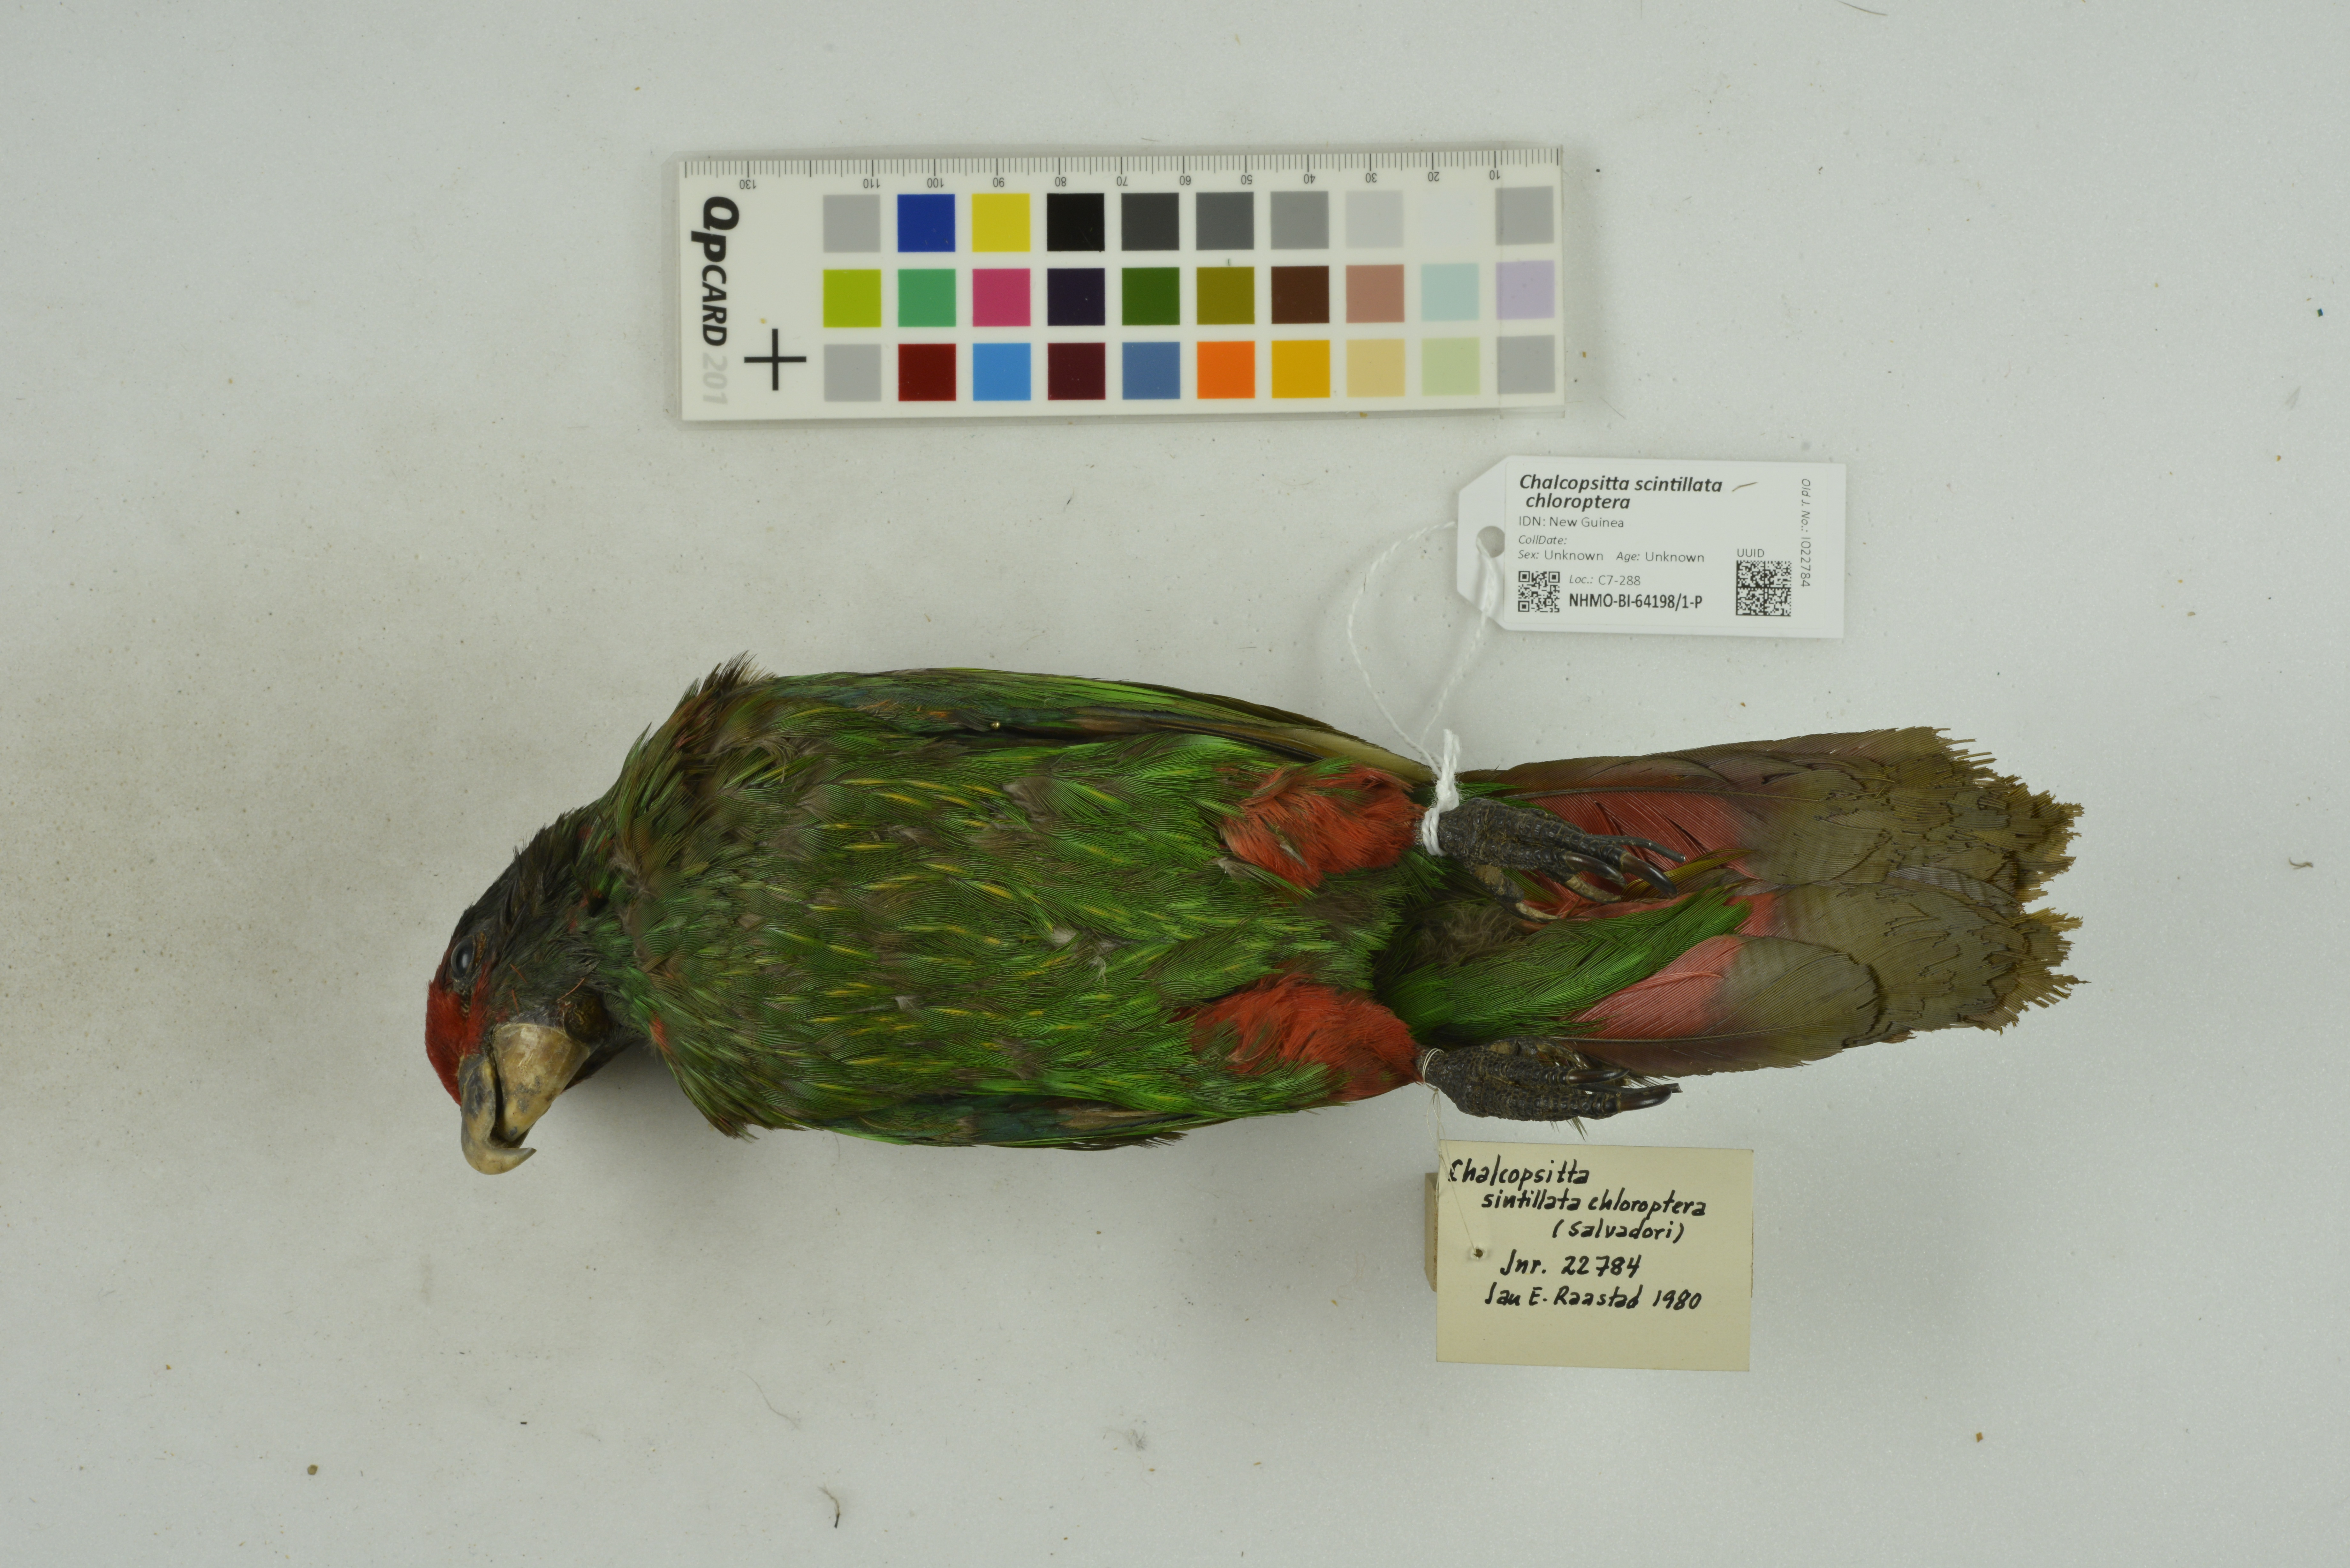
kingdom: Animalia
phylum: Chordata
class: Aves
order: Psittaciformes
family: Psittacidae
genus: Chalcopsitta
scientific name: Chalcopsitta sintillata
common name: Streaked lory
